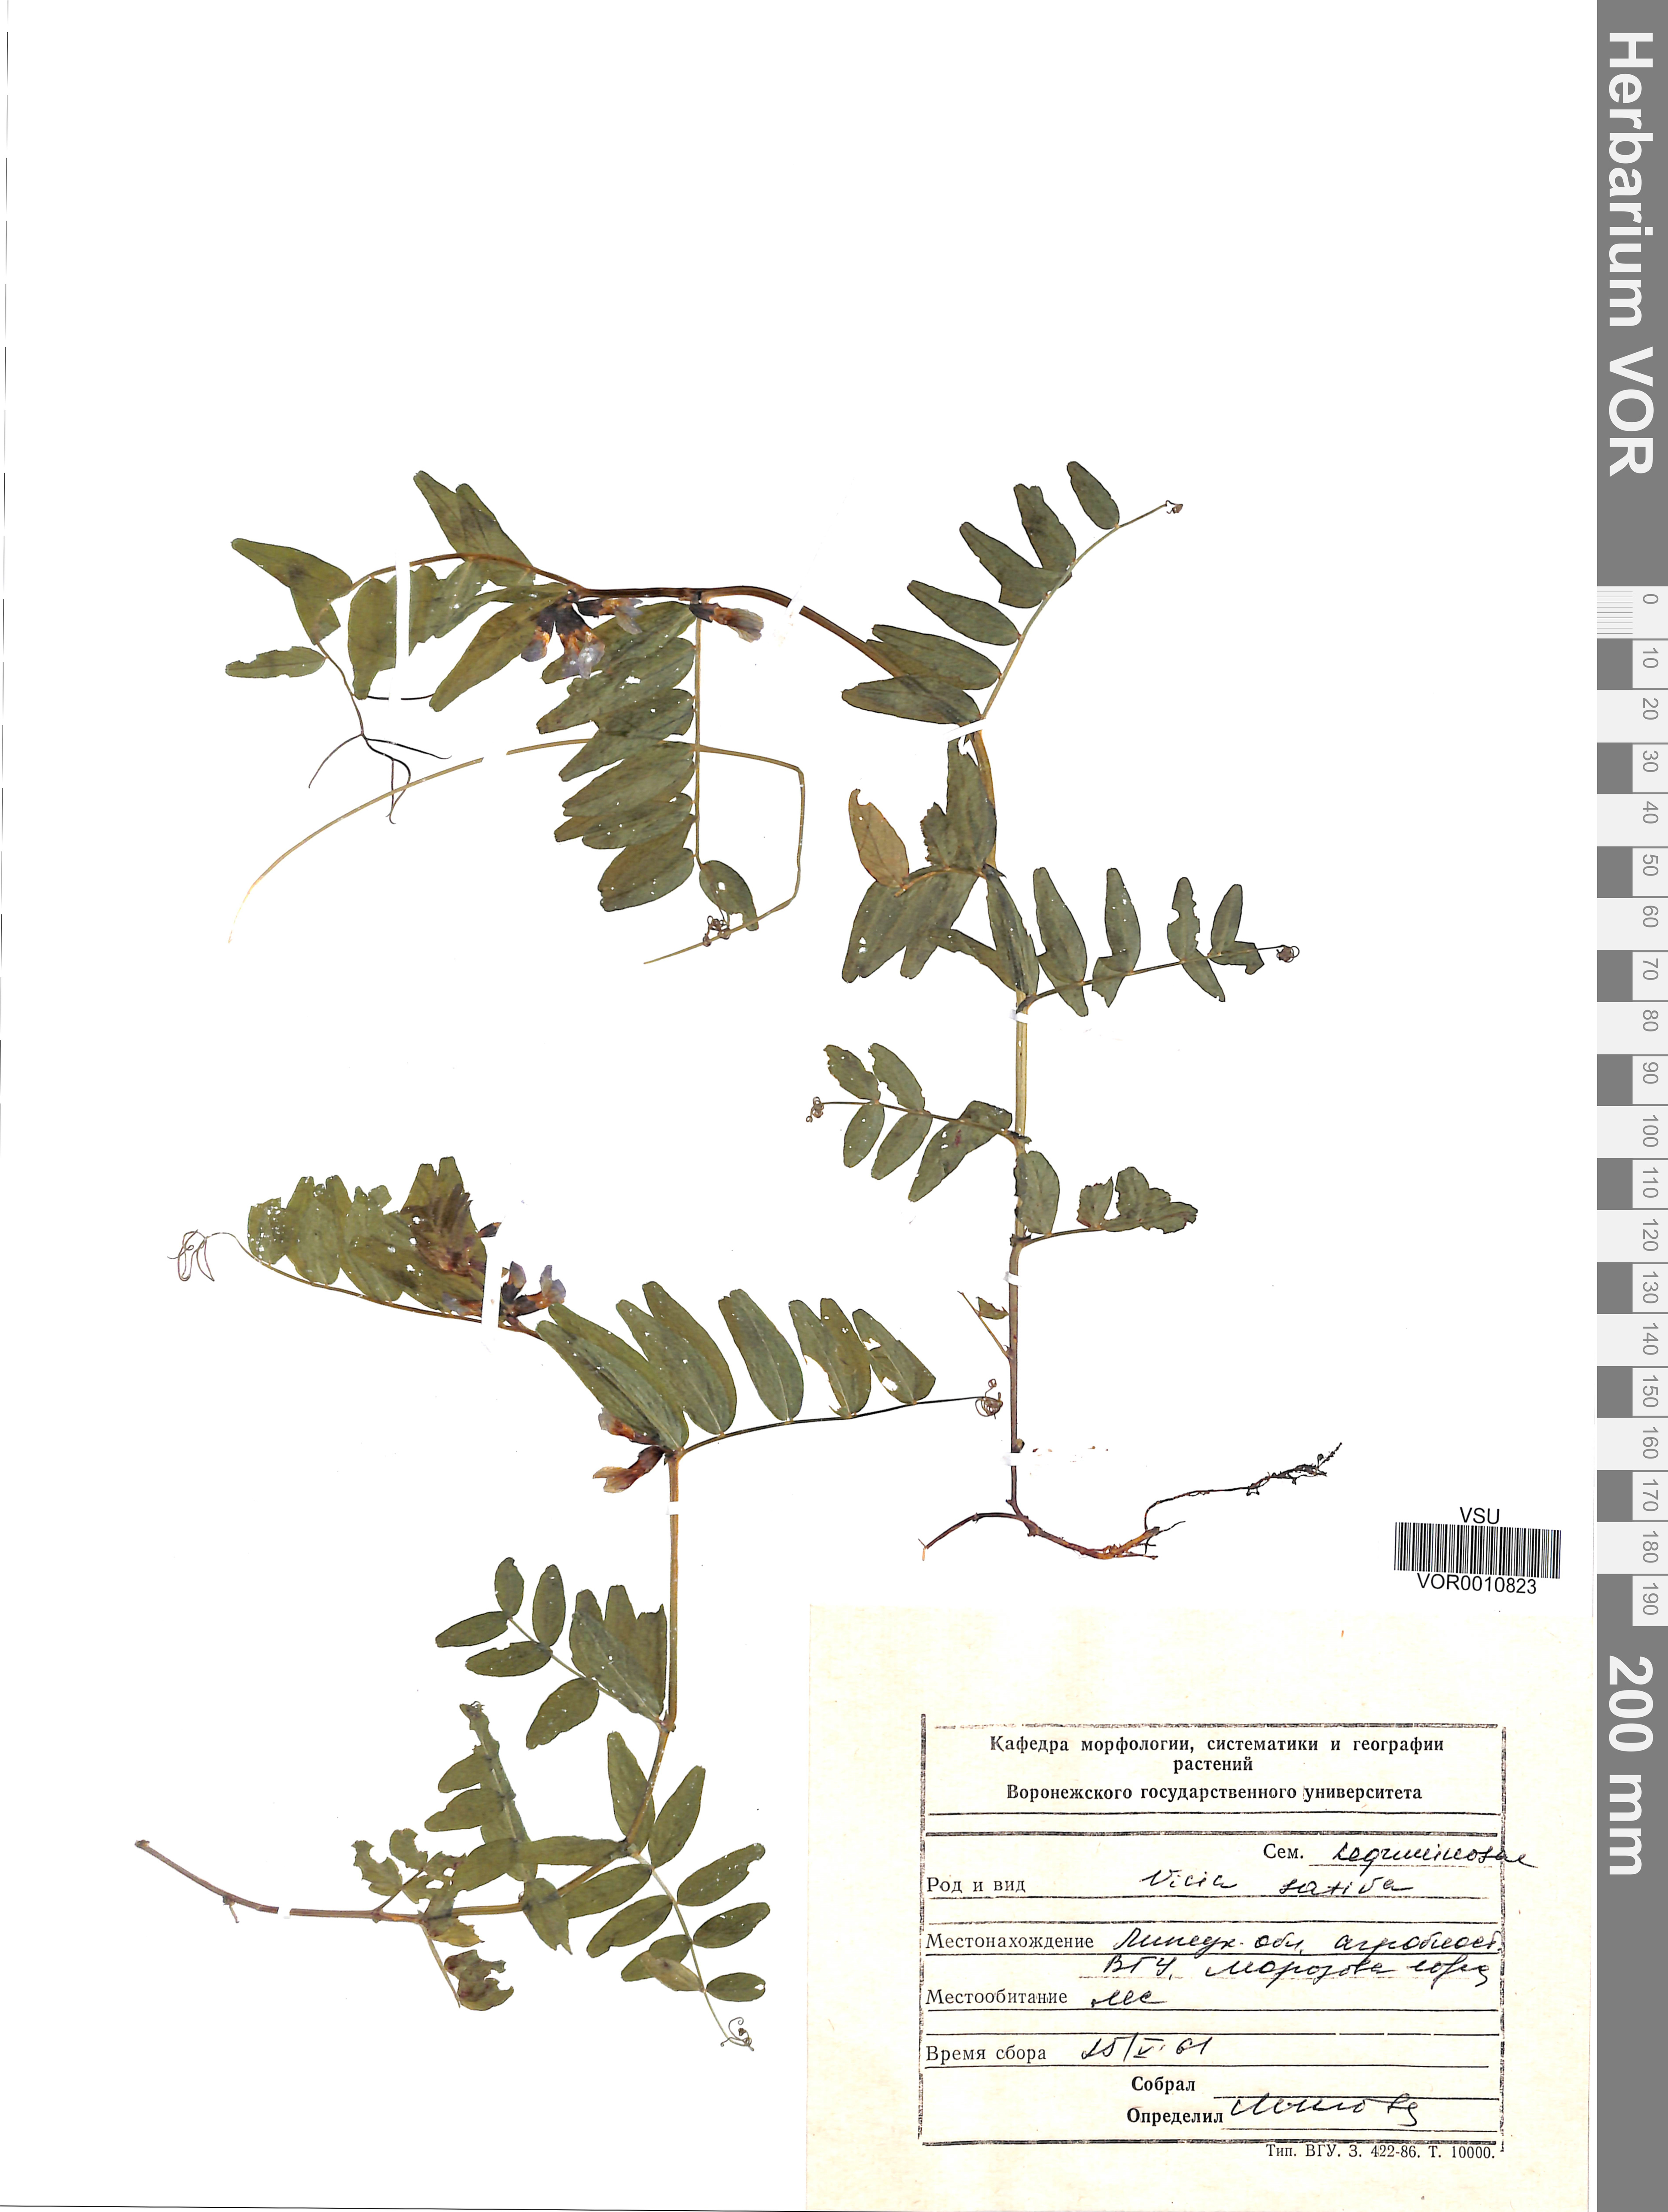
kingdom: Plantae
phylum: Tracheophyta
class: Magnoliopsida
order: Fabales
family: Fabaceae
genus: Vicia
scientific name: Vicia sativa
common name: Garden vetch
